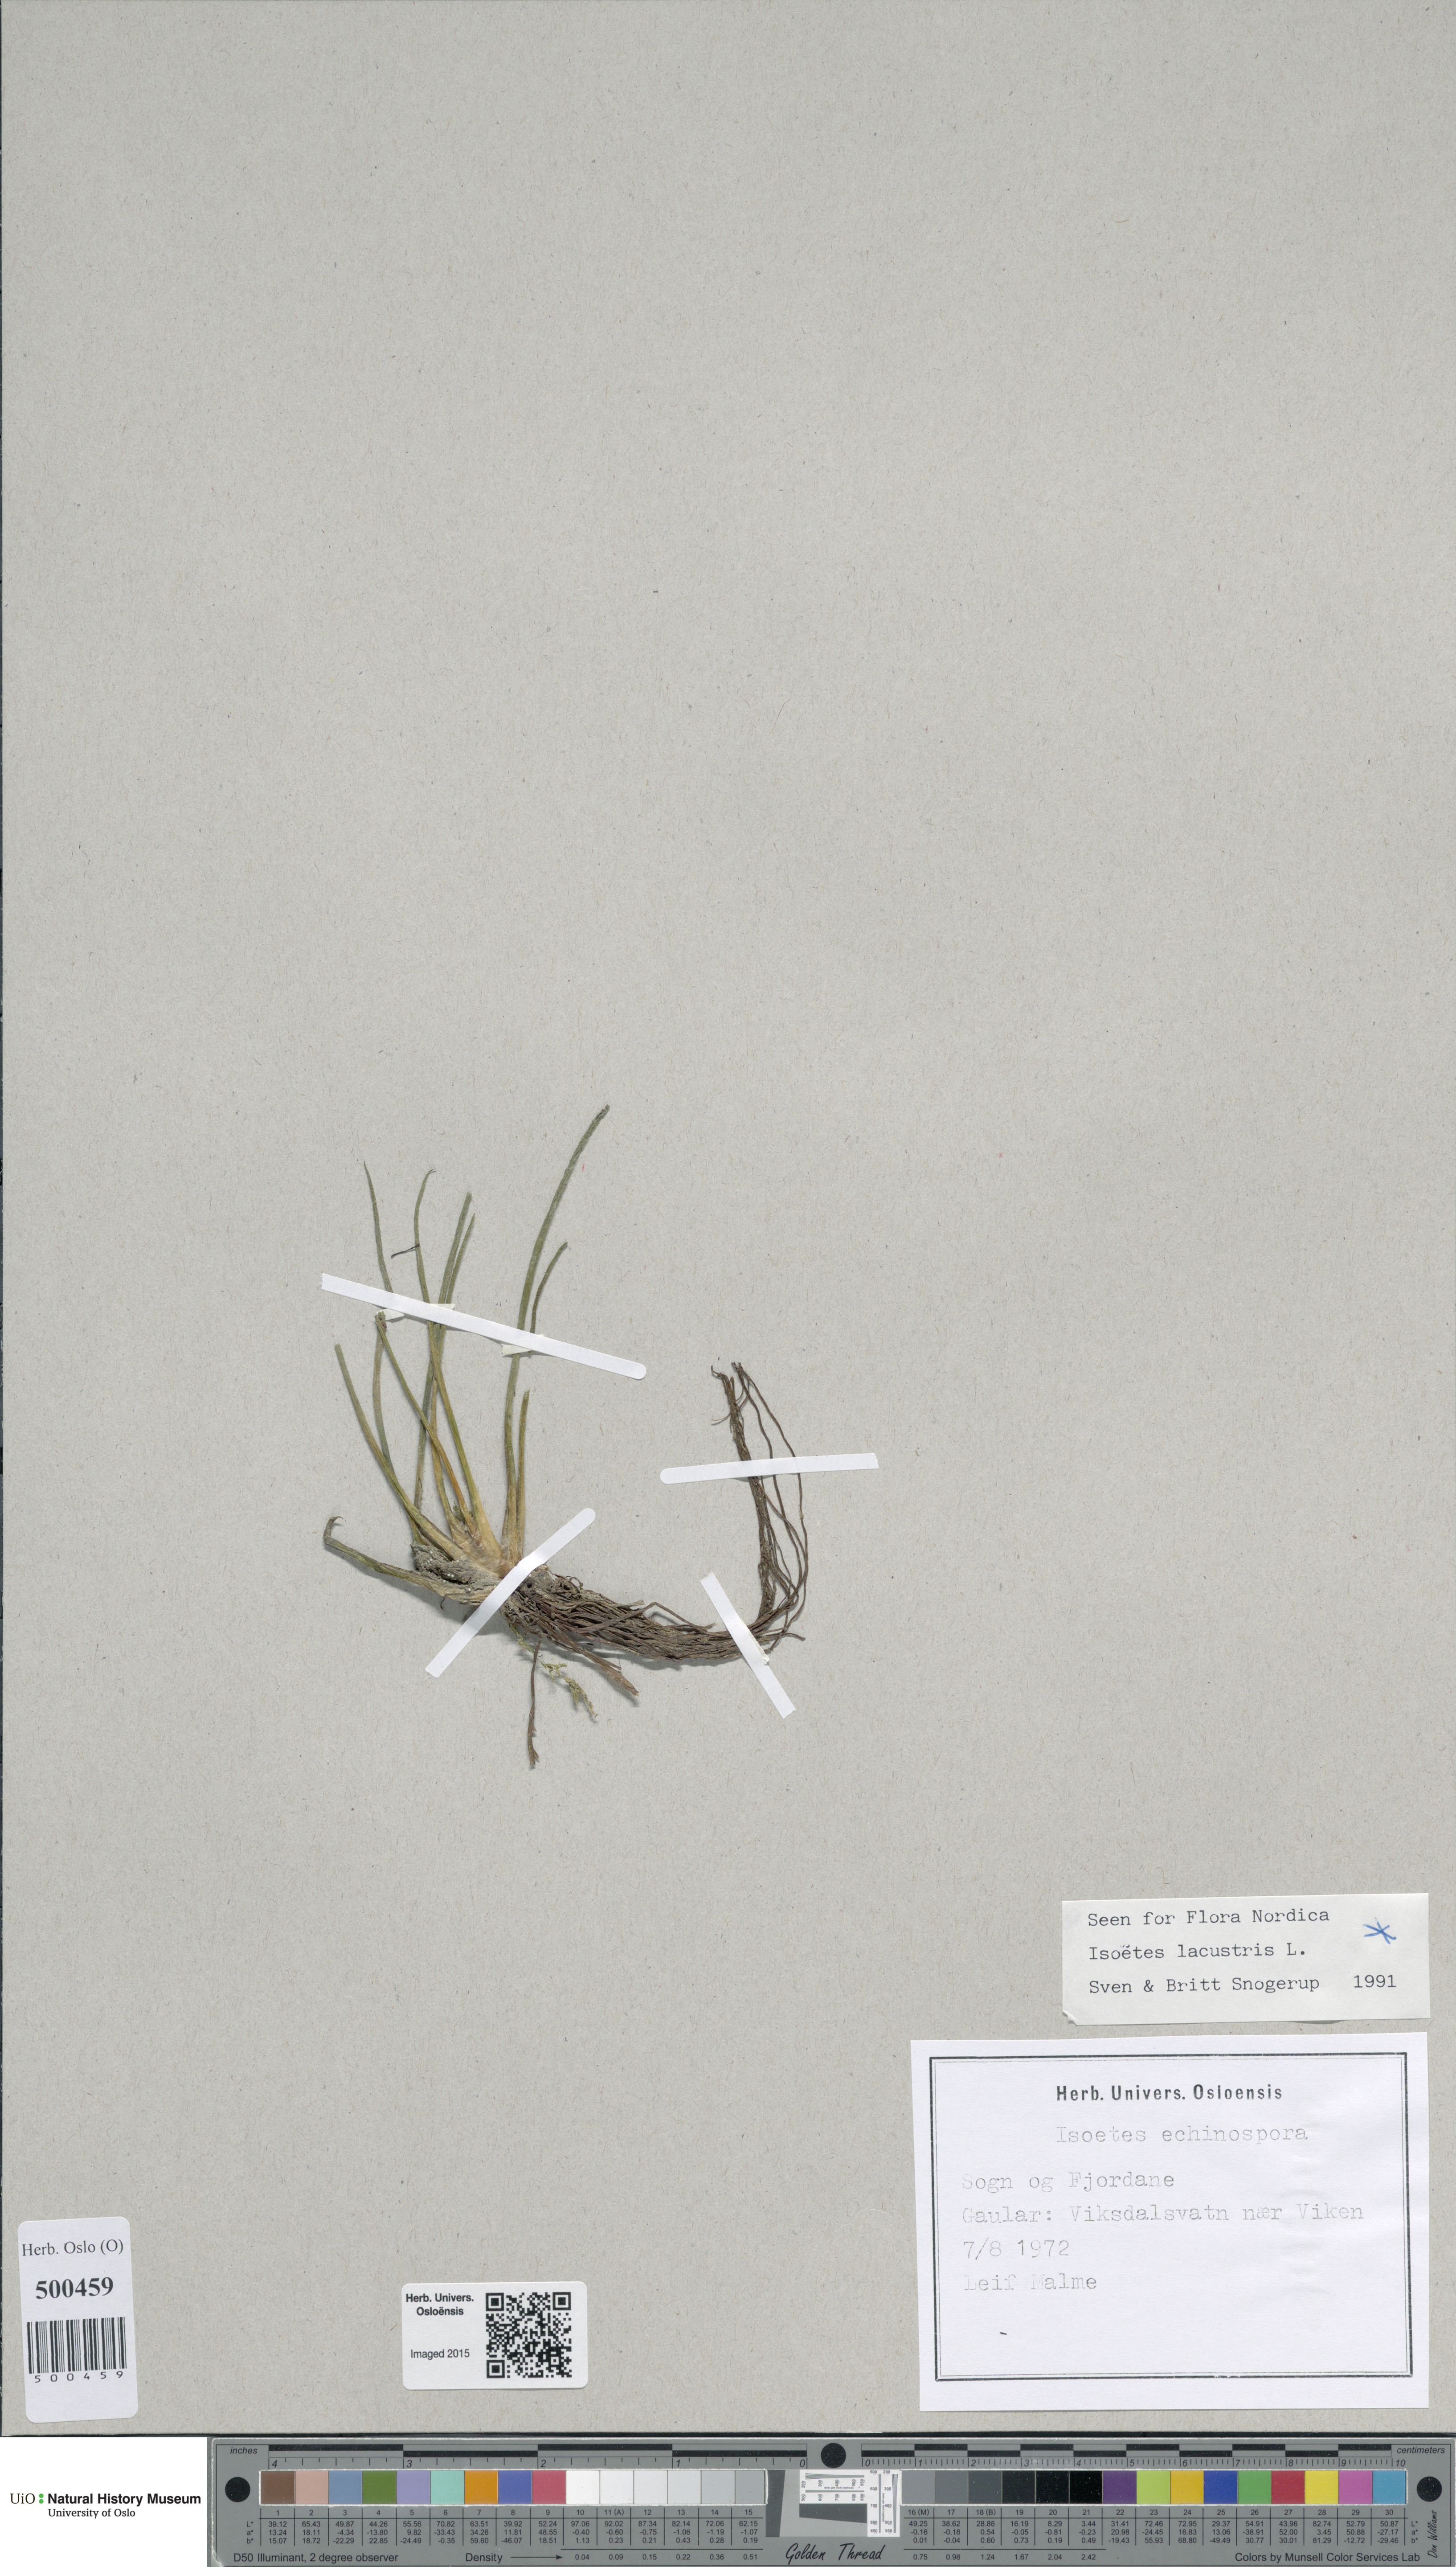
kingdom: Plantae
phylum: Tracheophyta
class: Lycopodiopsida
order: Isoetales
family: Isoetaceae
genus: Isoetes
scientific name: Isoetes lacustris
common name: Common quillwort
